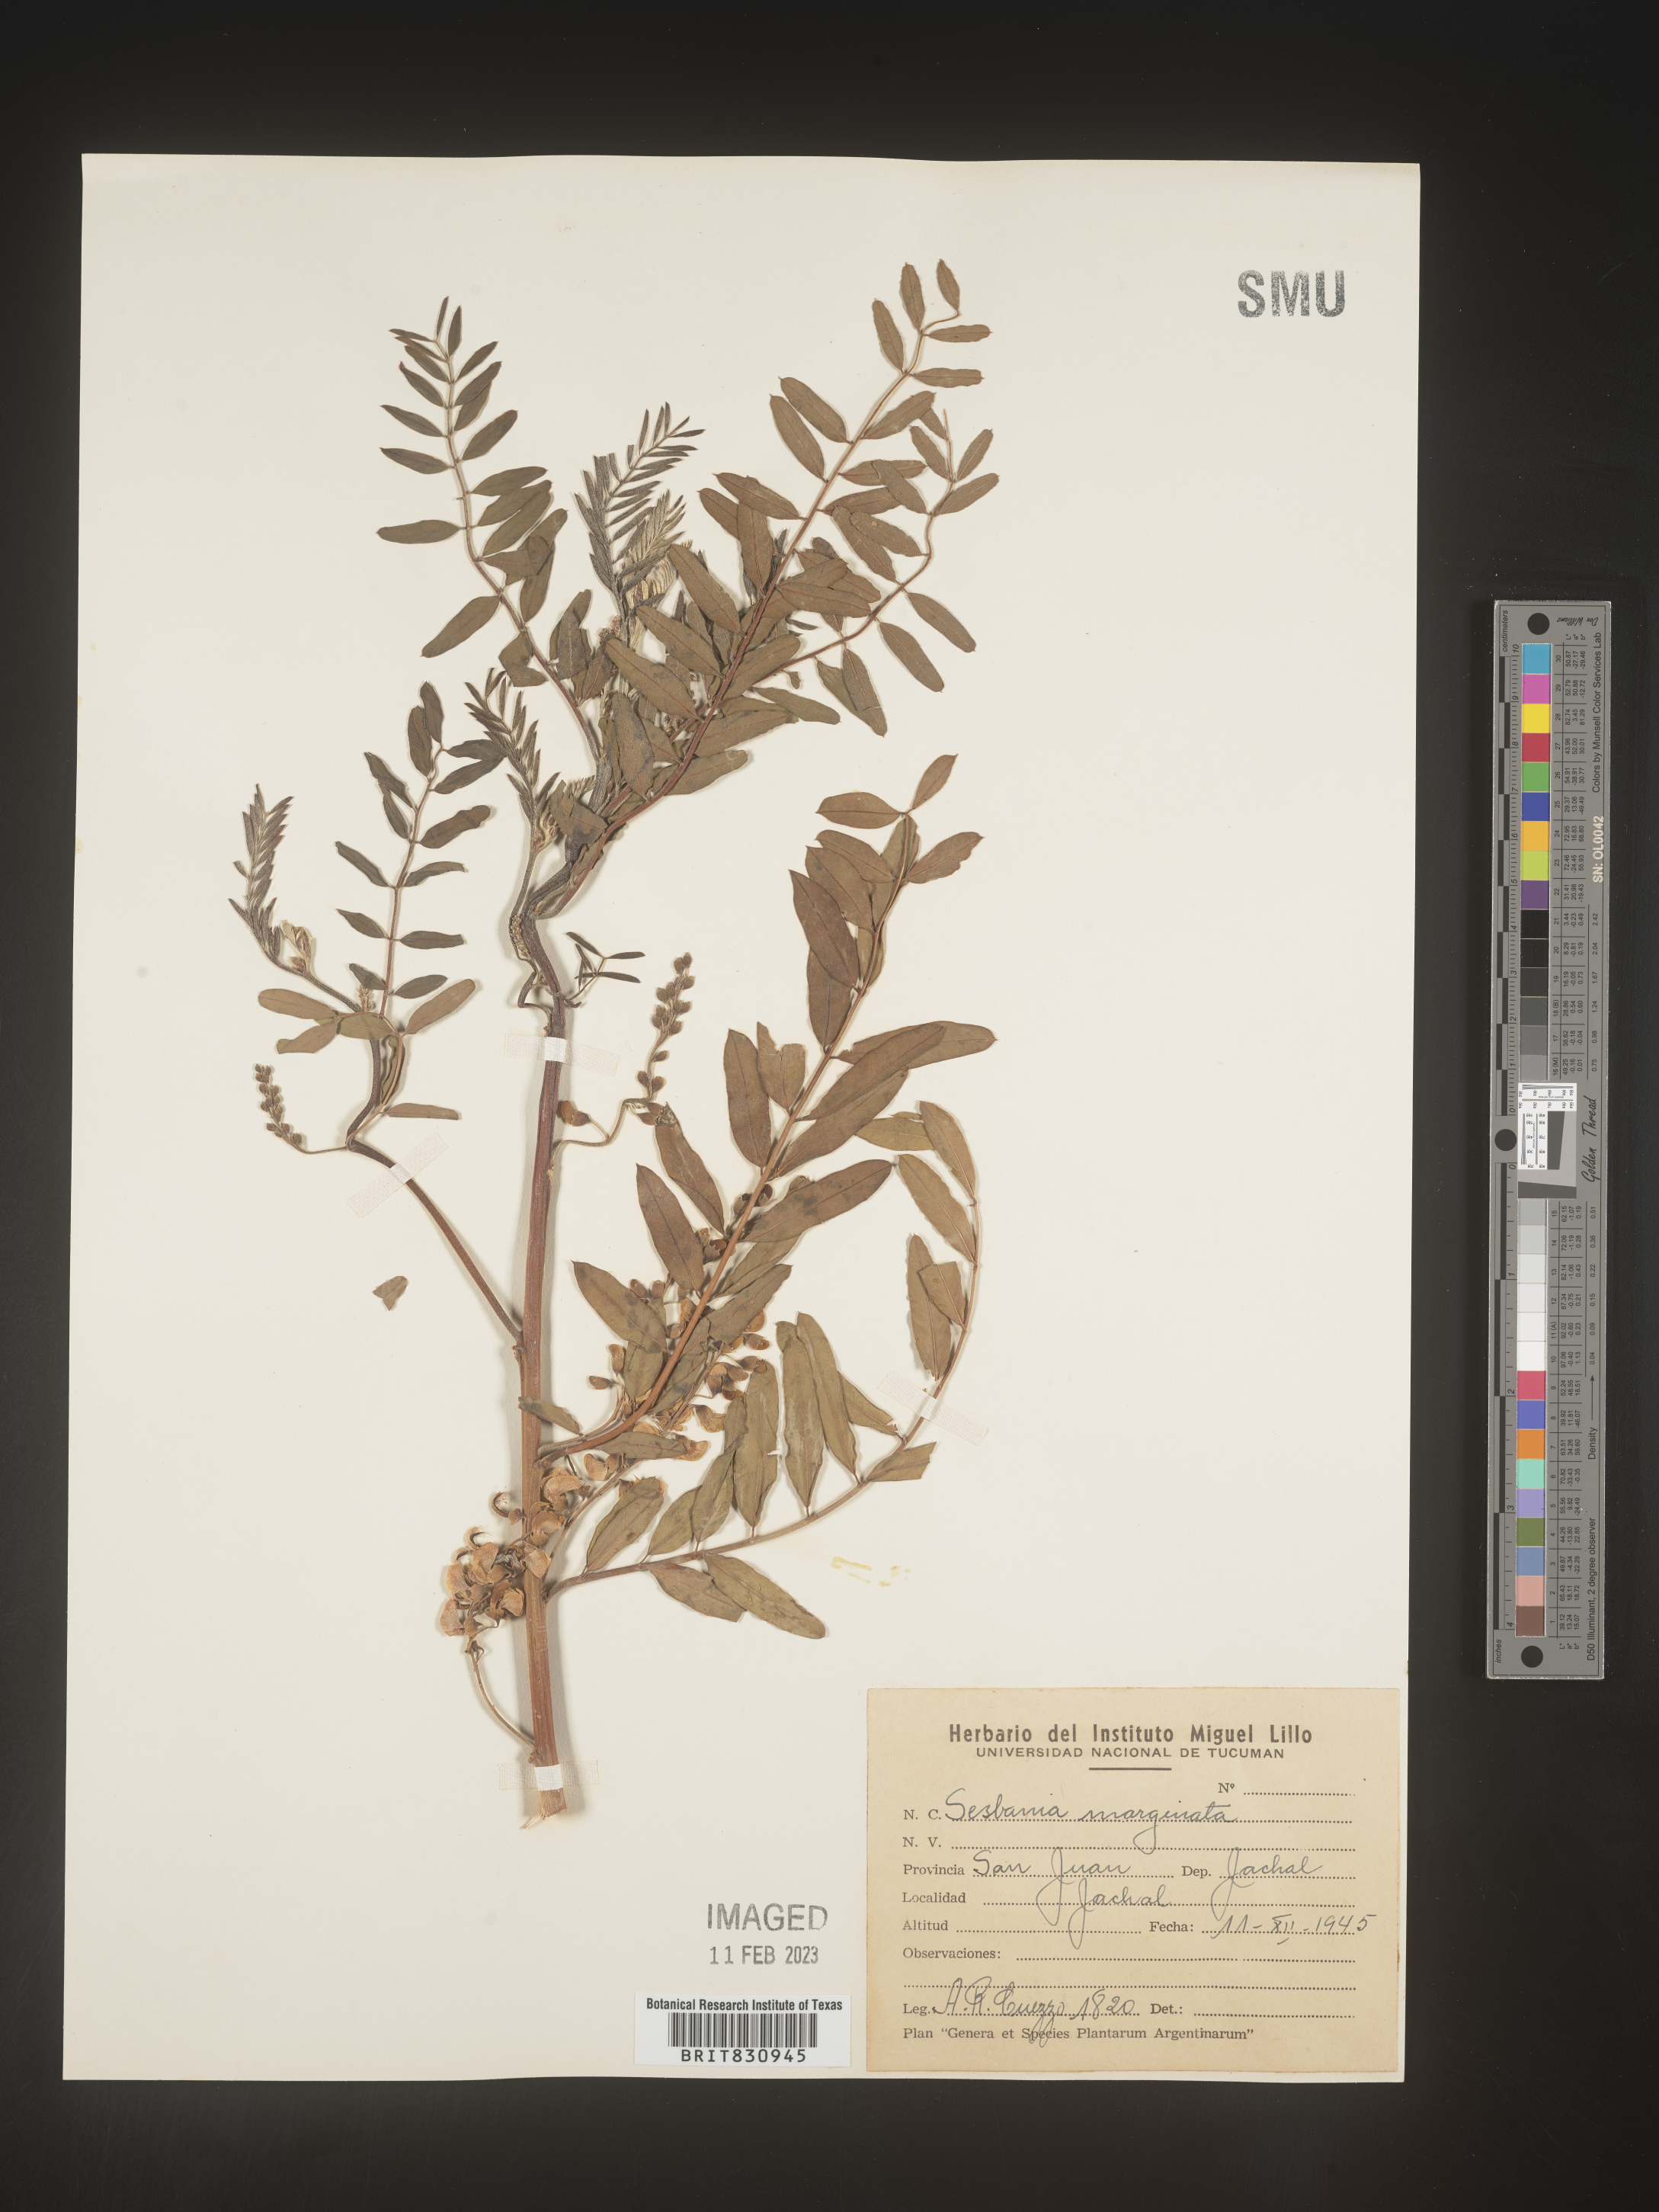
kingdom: Plantae
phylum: Tracheophyta
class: Magnoliopsida
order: Fabales
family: Fabaceae
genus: Sesbania
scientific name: Sesbania
